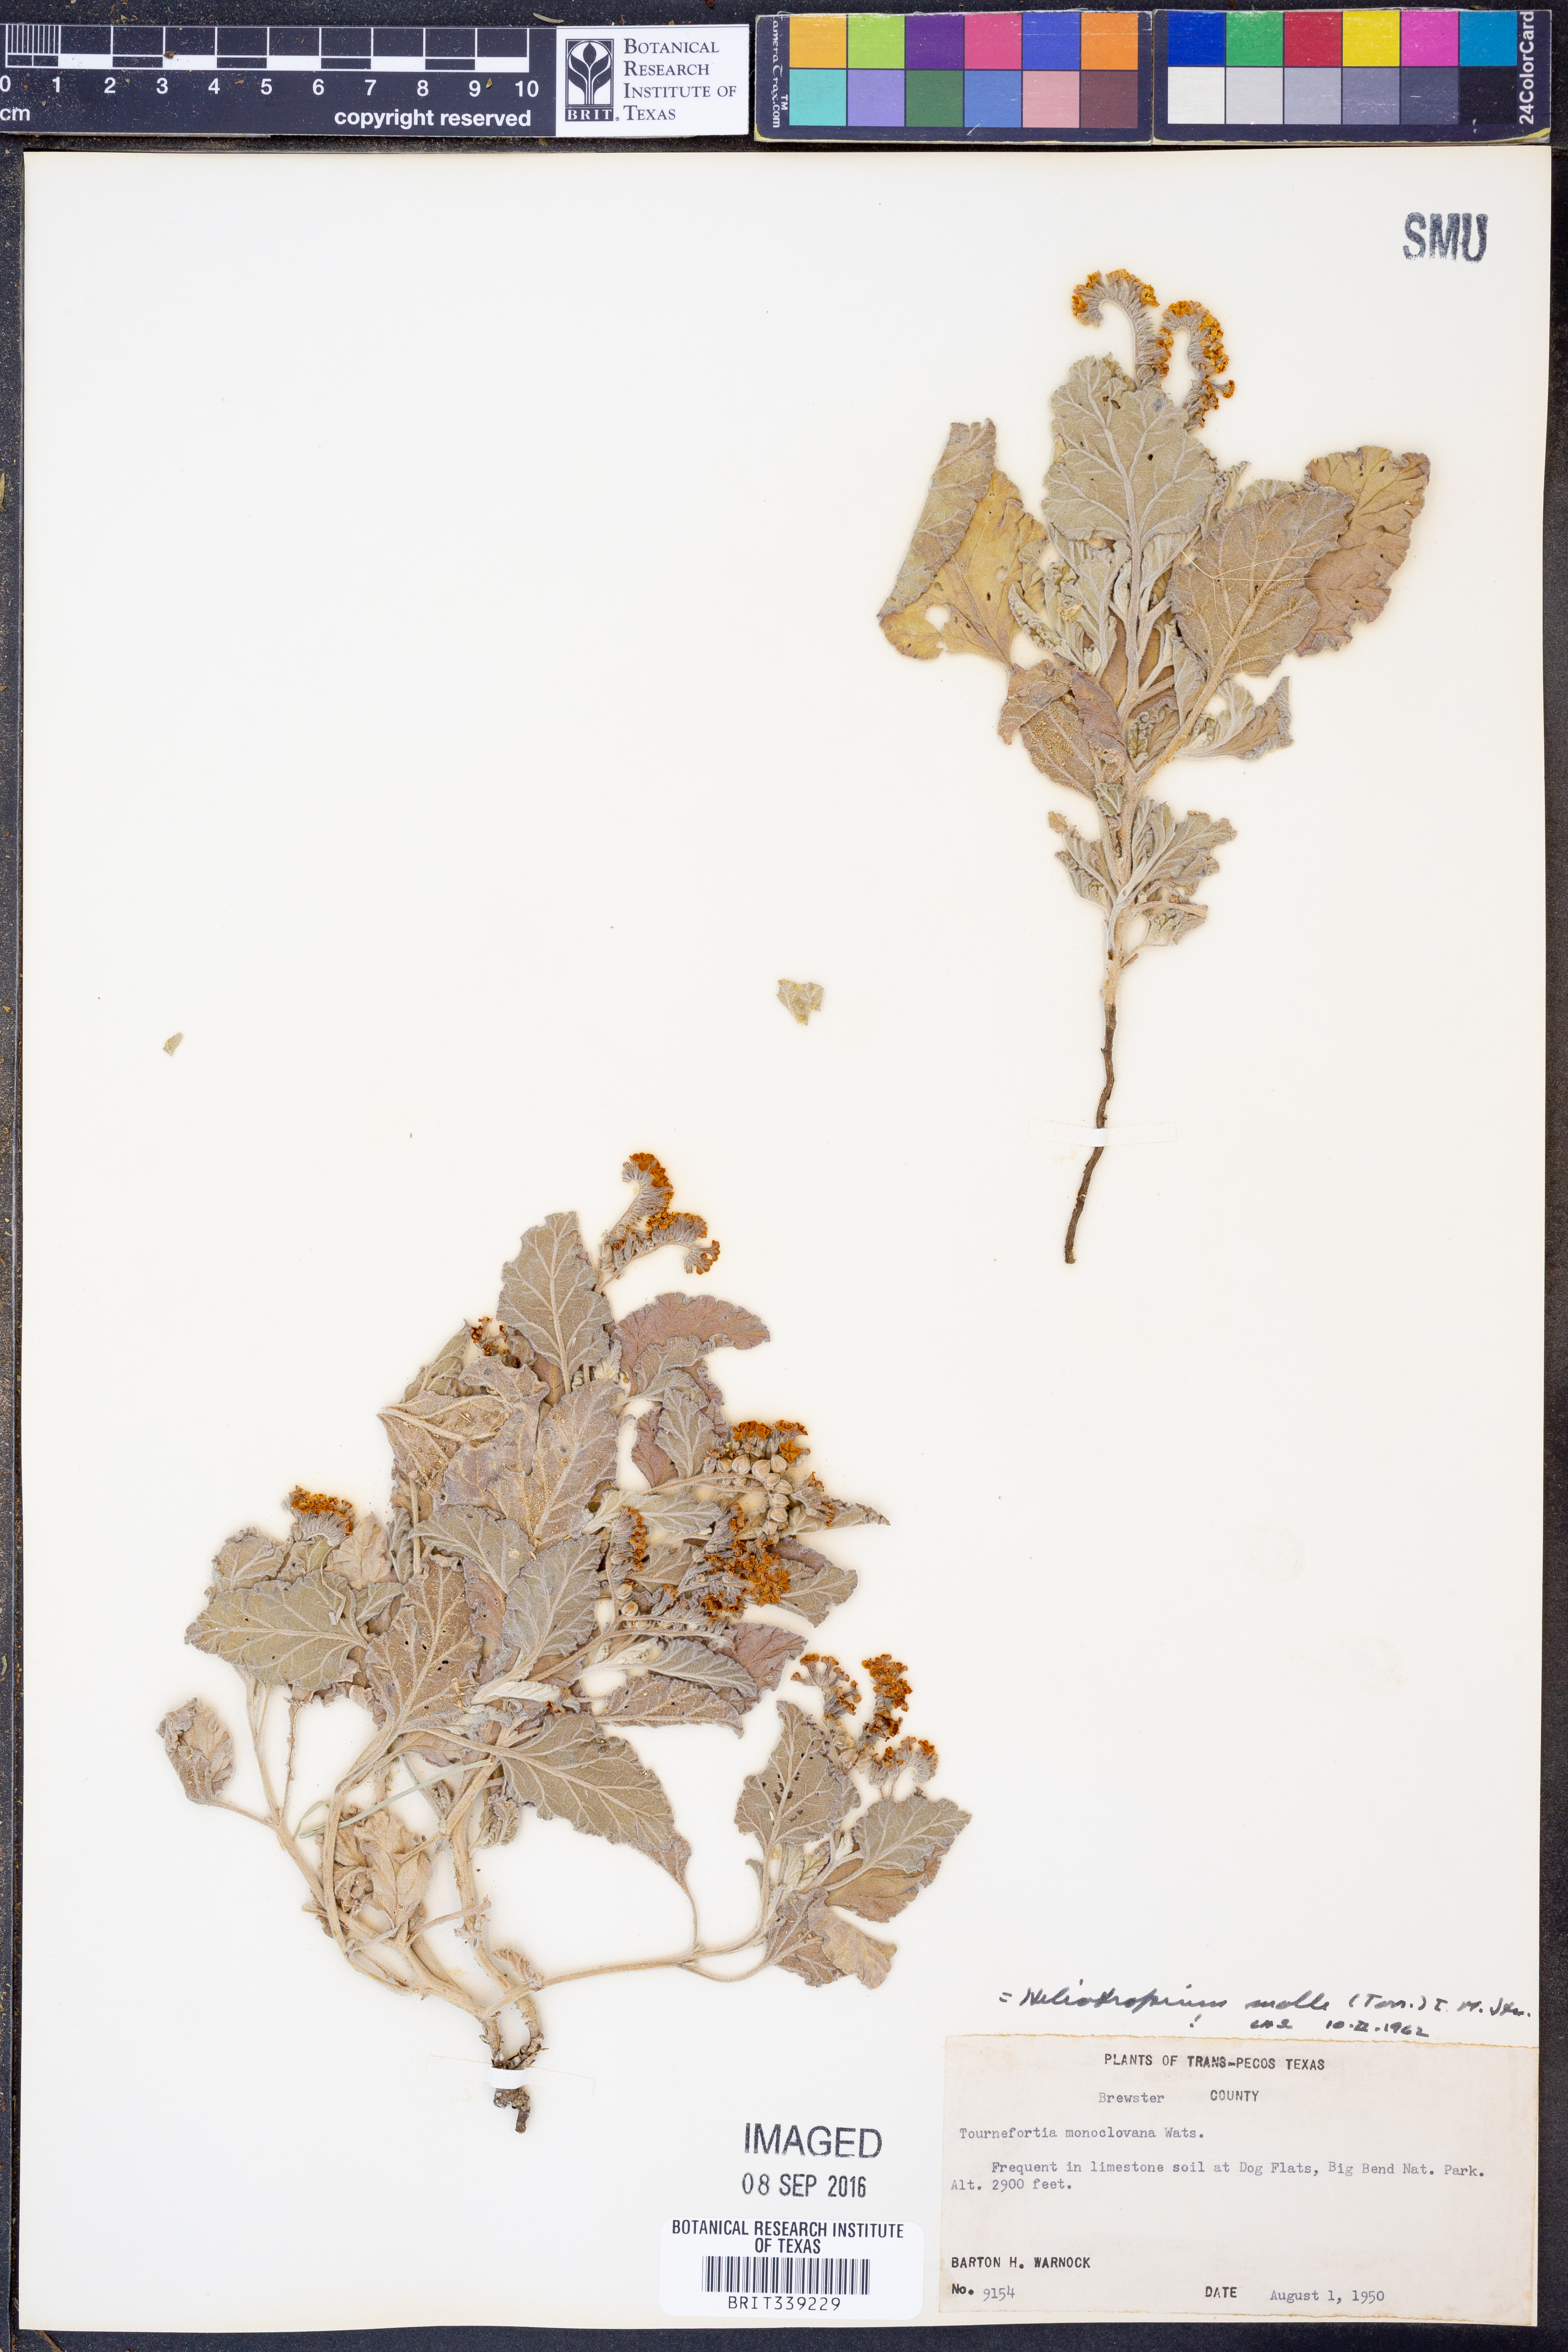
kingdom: Plantae
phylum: Tracheophyta
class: Magnoliopsida
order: Boraginales
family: Heliotropiaceae
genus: Heliotropium
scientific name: Heliotropium molle
